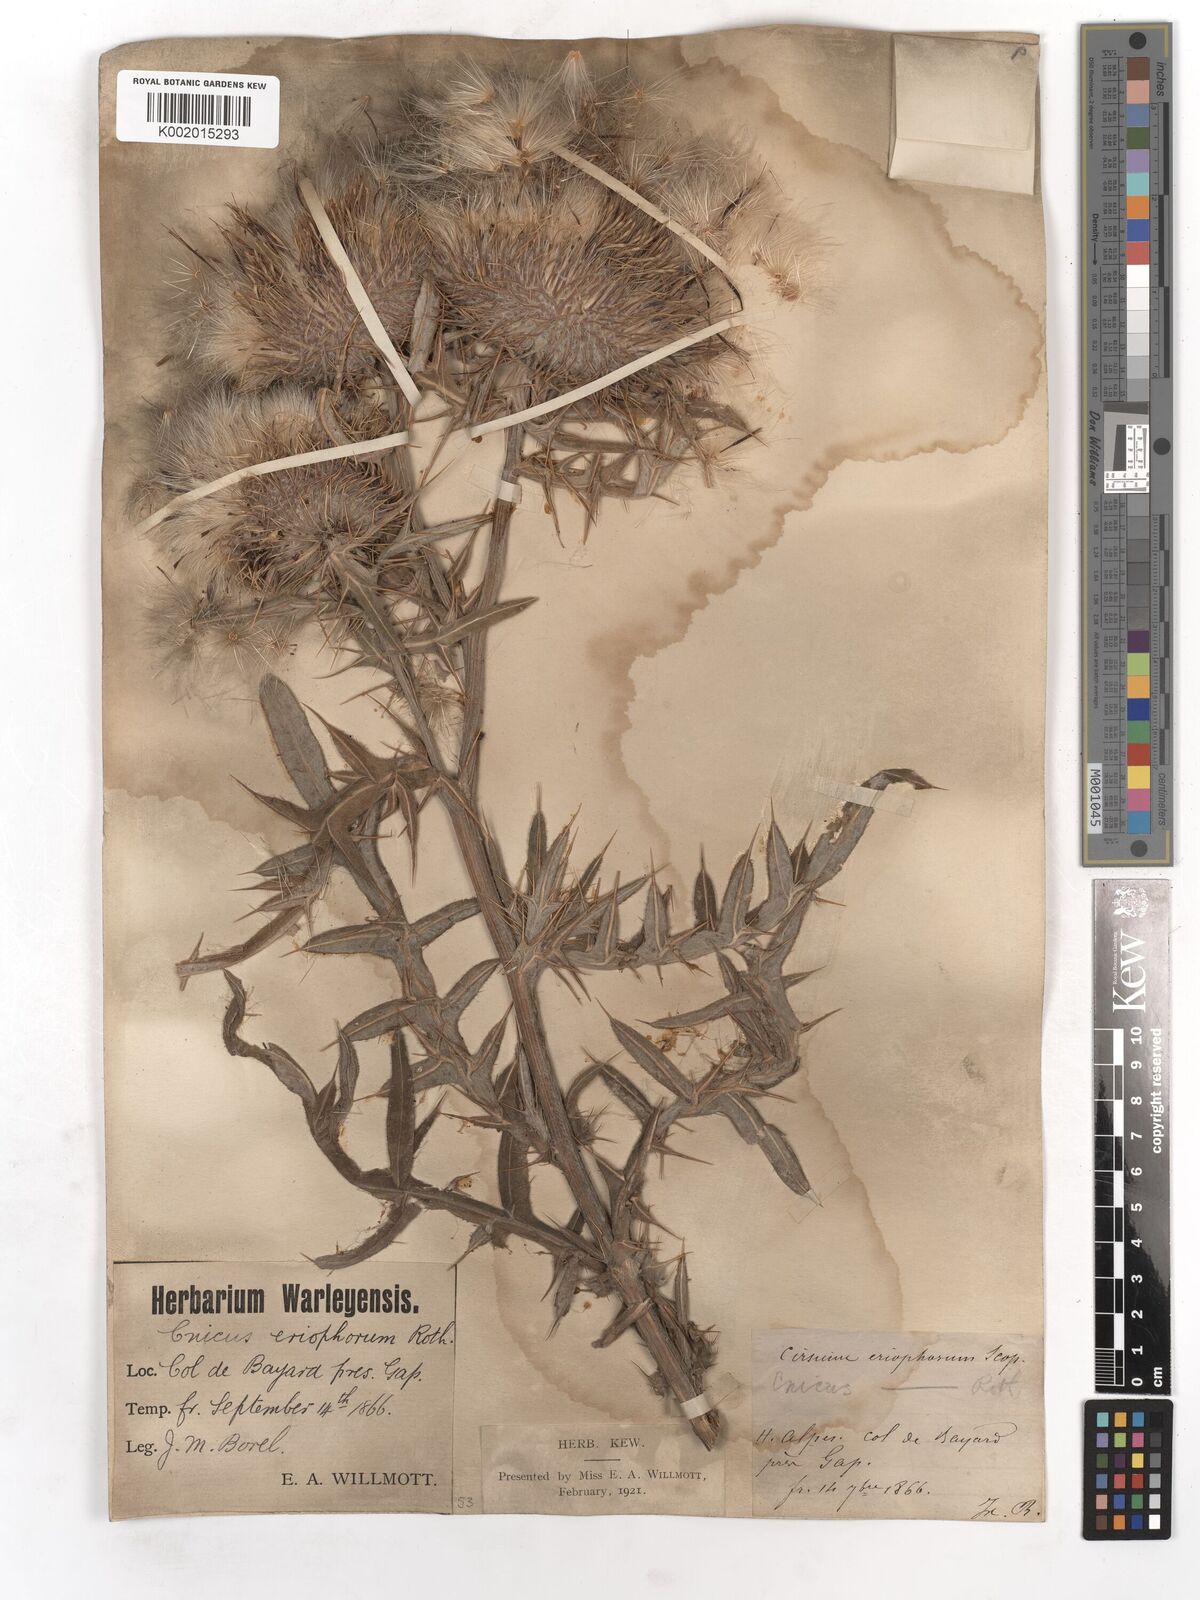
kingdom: Plantae
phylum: Tracheophyta
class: Magnoliopsida
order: Asterales
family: Asteraceae
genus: Lophiolepis
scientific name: Lophiolepis eriophora
